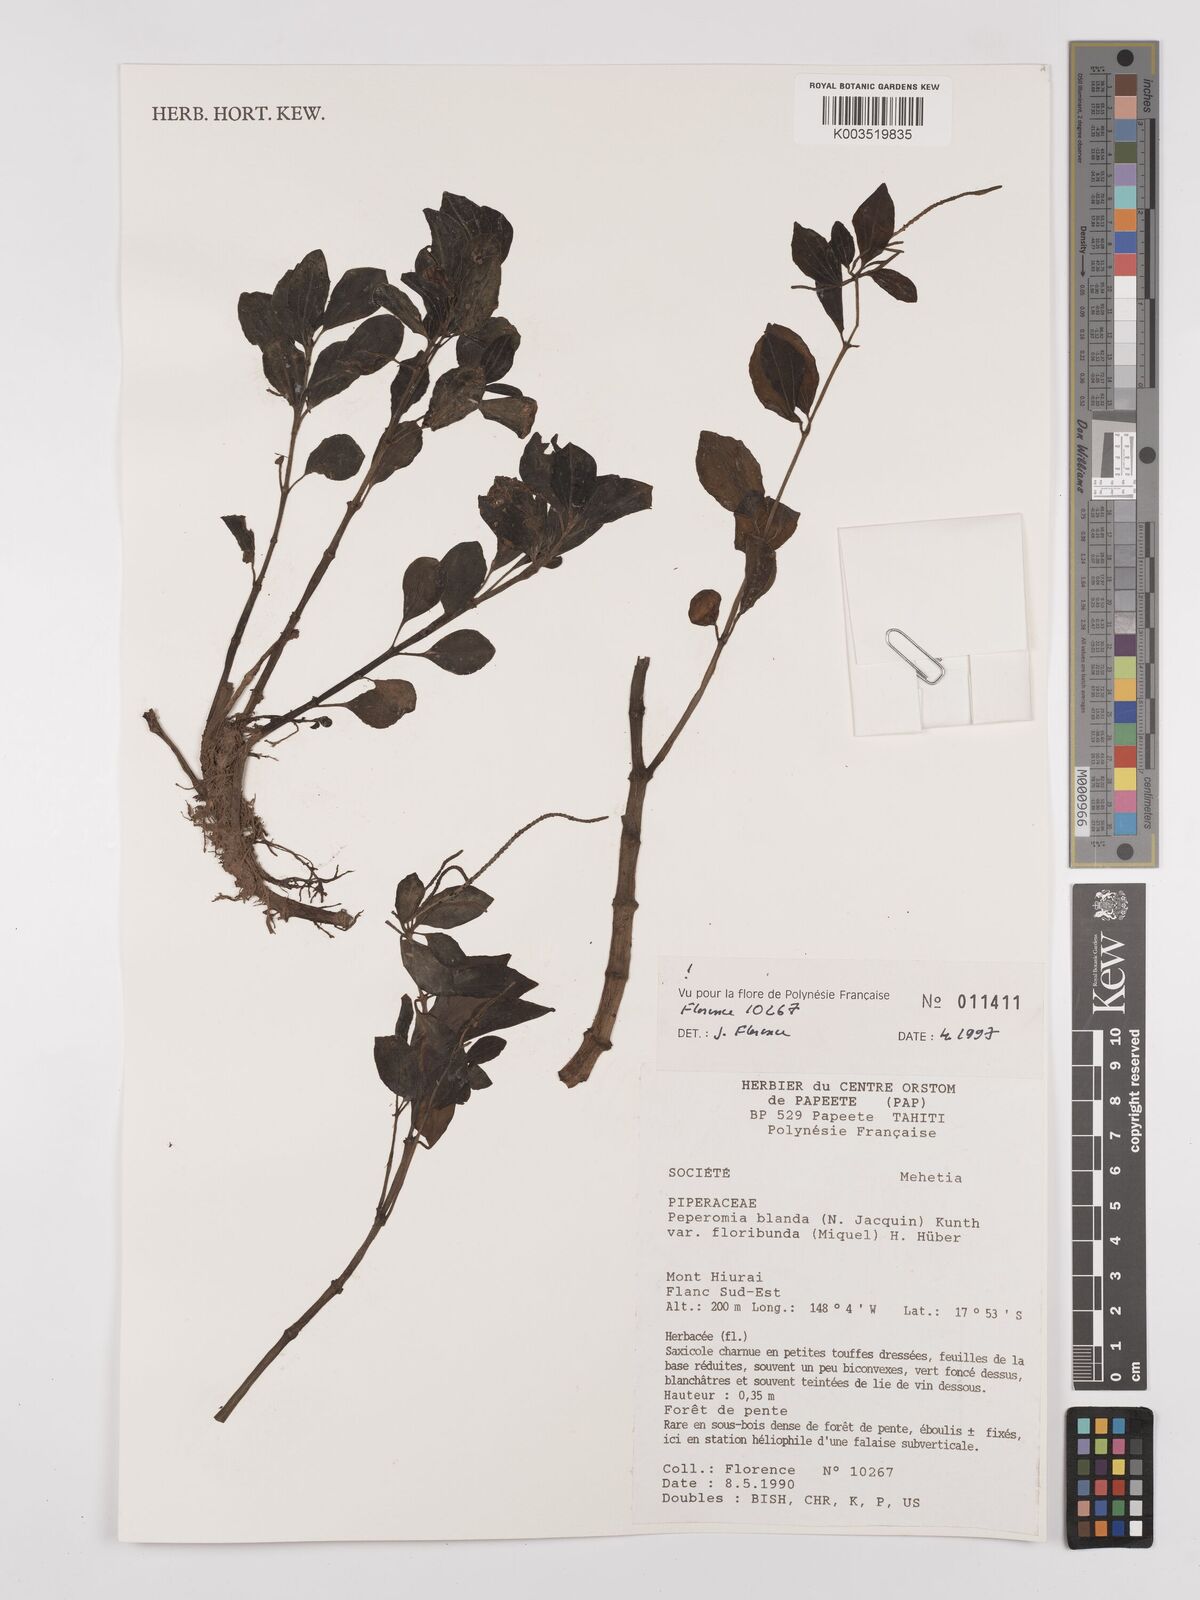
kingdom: Plantae
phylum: Tracheophyta
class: Magnoliopsida
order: Piperales
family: Piperaceae
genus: Peperomia
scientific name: Peperomia leptostachya
